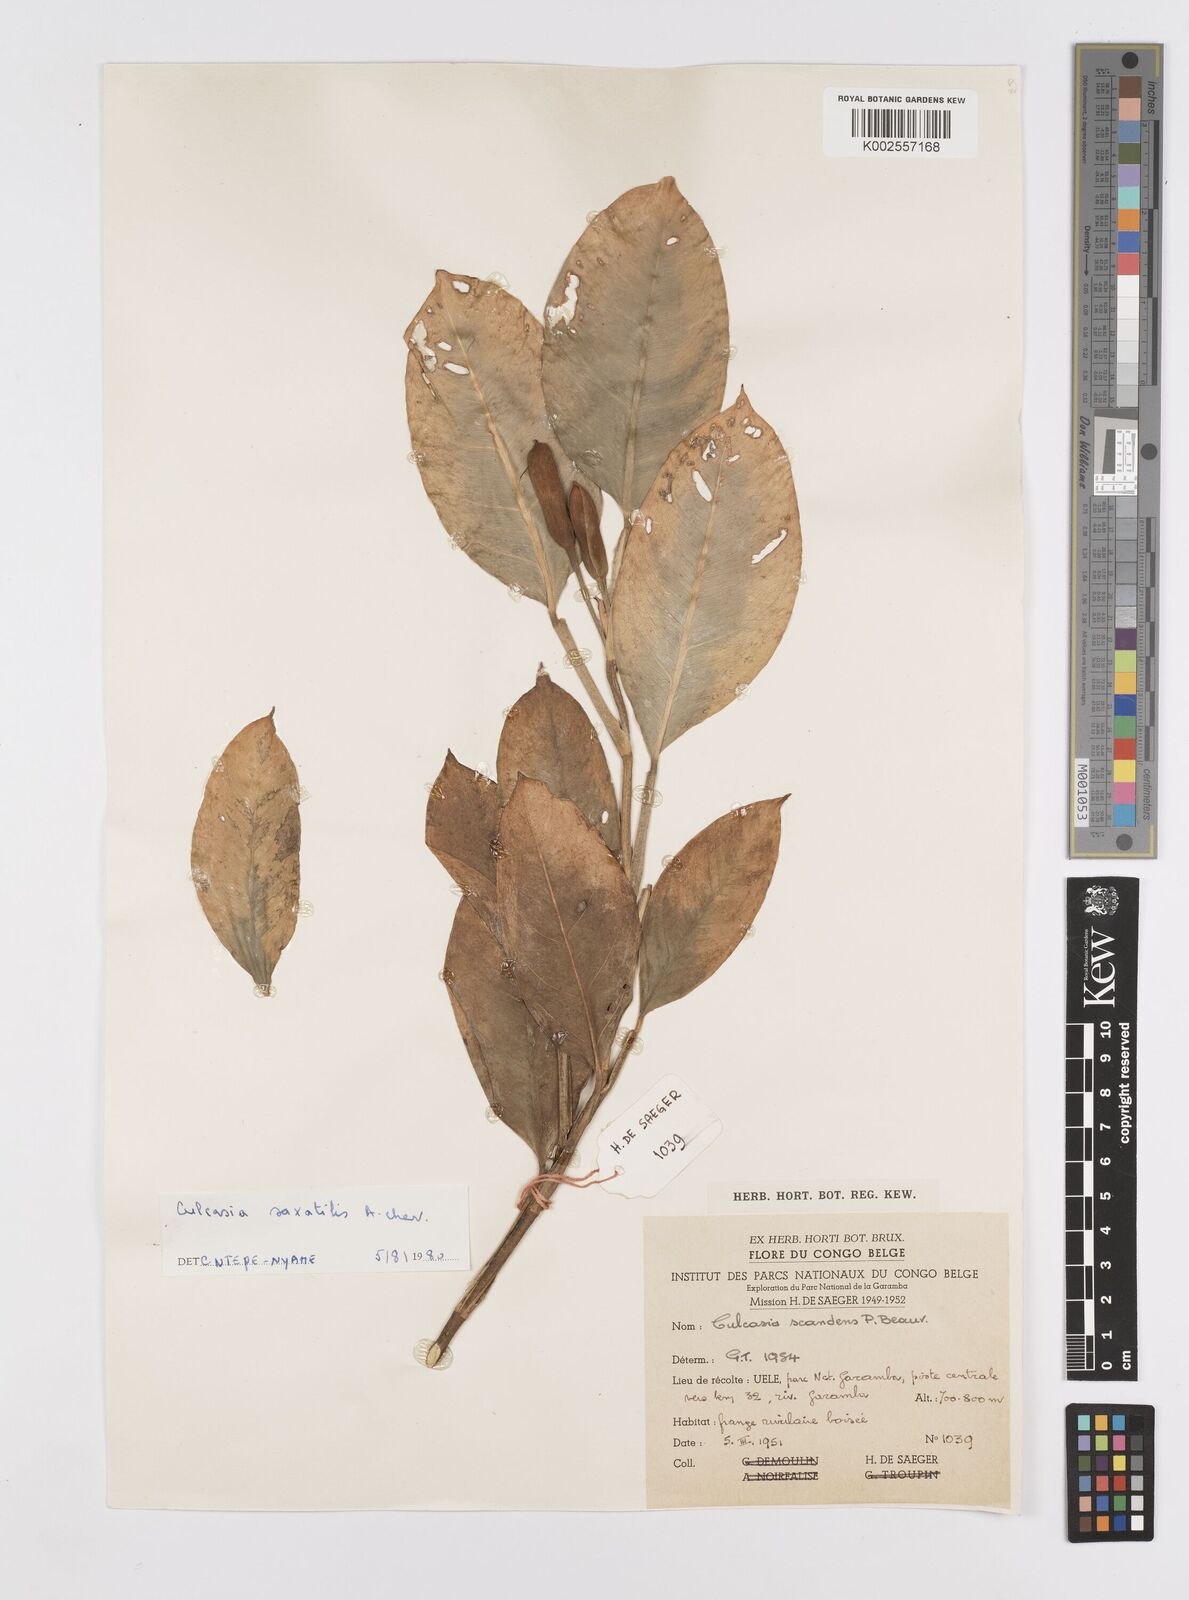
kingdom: Plantae
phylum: Tracheophyta
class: Liliopsida
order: Alismatales
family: Araceae
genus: Culcasia
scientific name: Culcasia scandens
